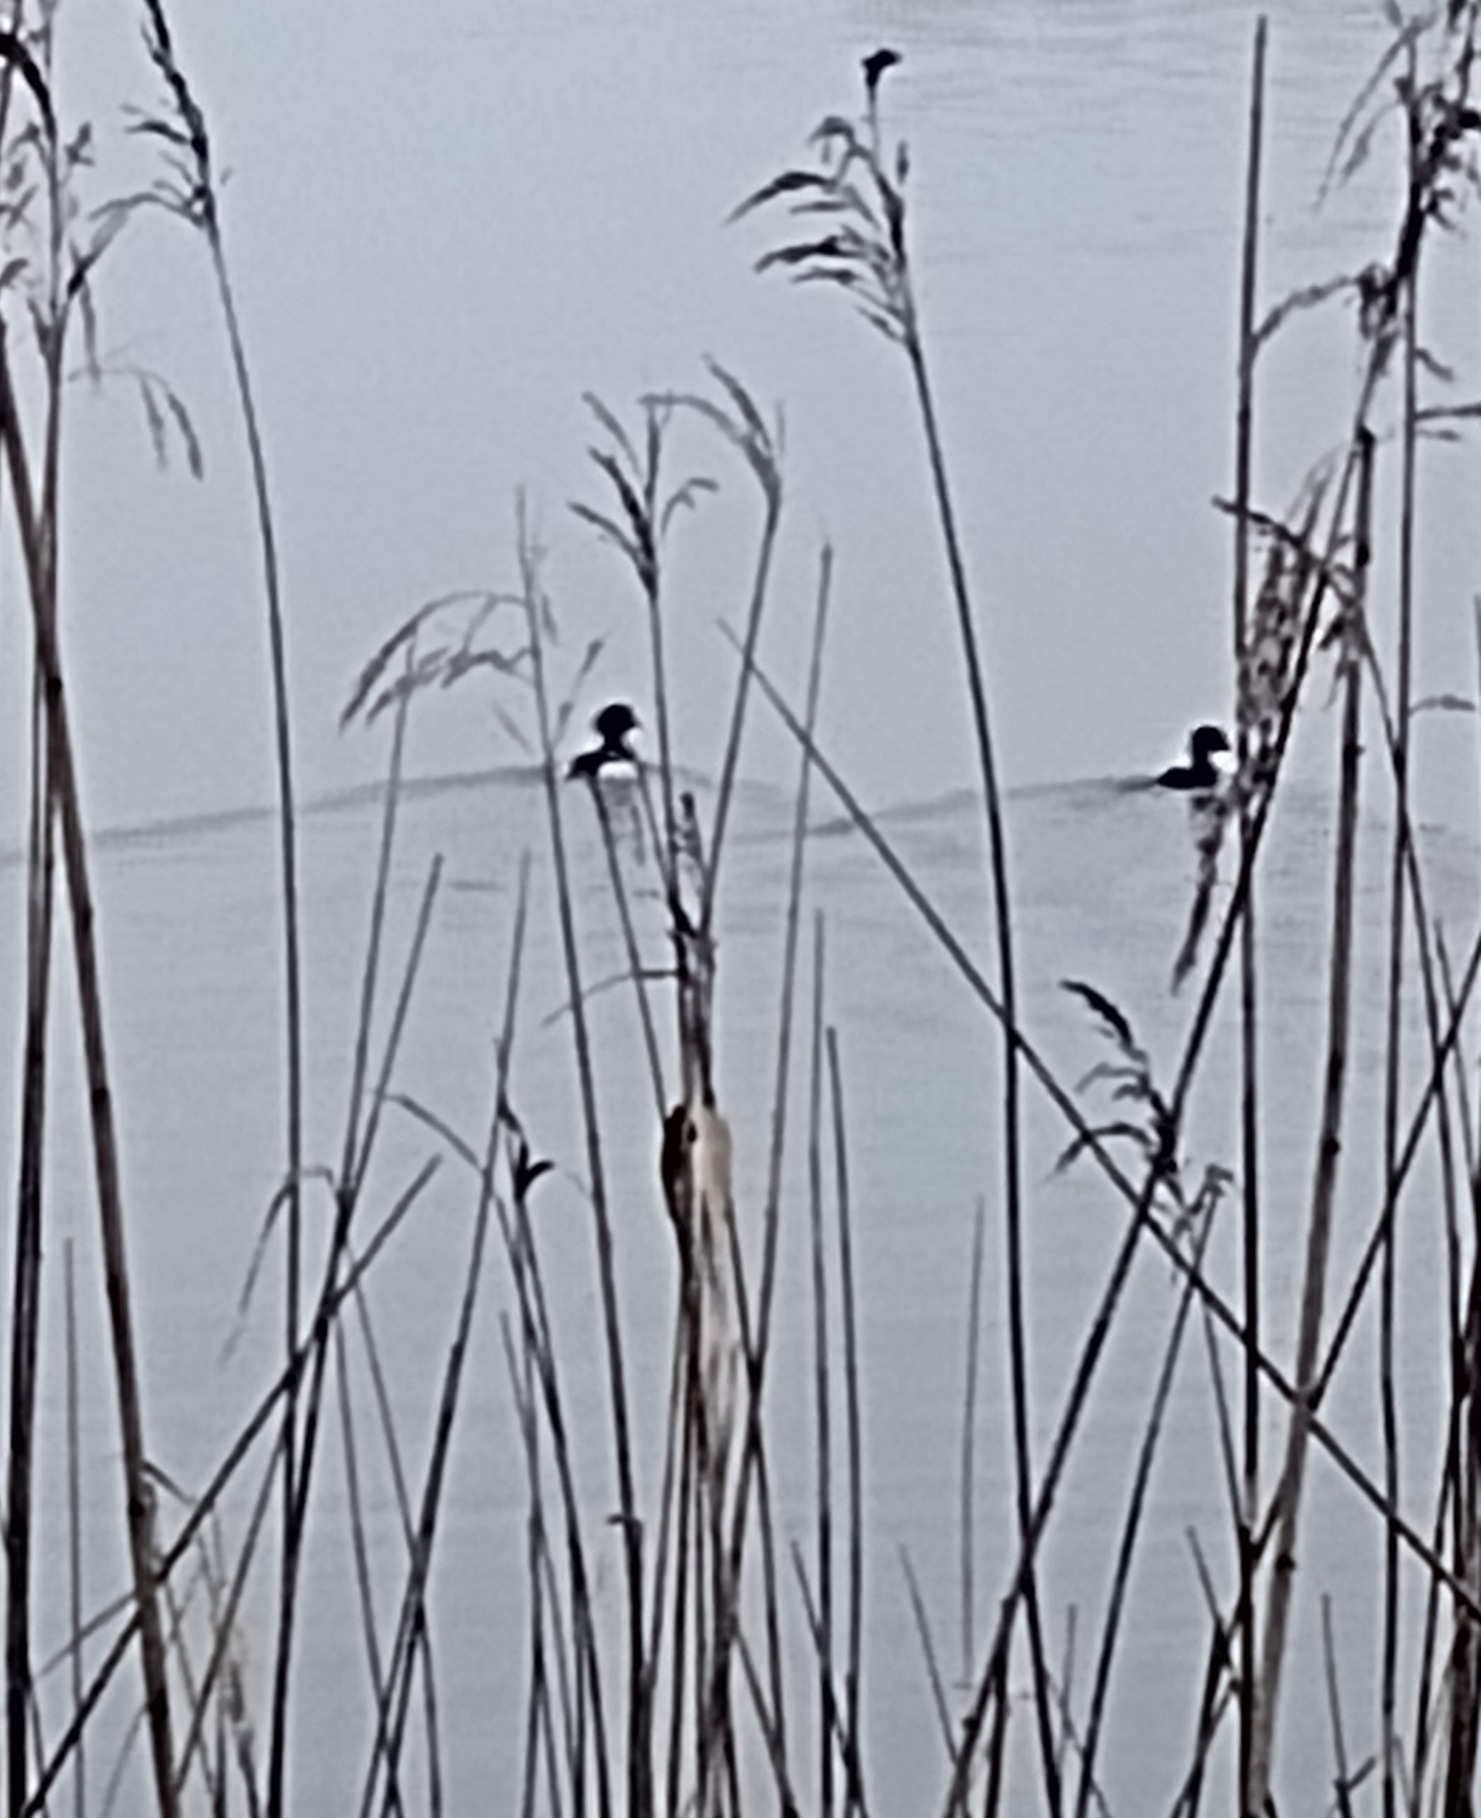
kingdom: Animalia
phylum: Chordata
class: Aves
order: Anseriformes
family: Anatidae
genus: Aythya
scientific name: Aythya fuligula
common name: Troldand
